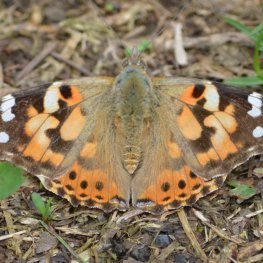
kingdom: Animalia
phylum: Arthropoda
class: Insecta
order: Lepidoptera
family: Nymphalidae
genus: Vanessa
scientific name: Vanessa cardui
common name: Painted Lady
